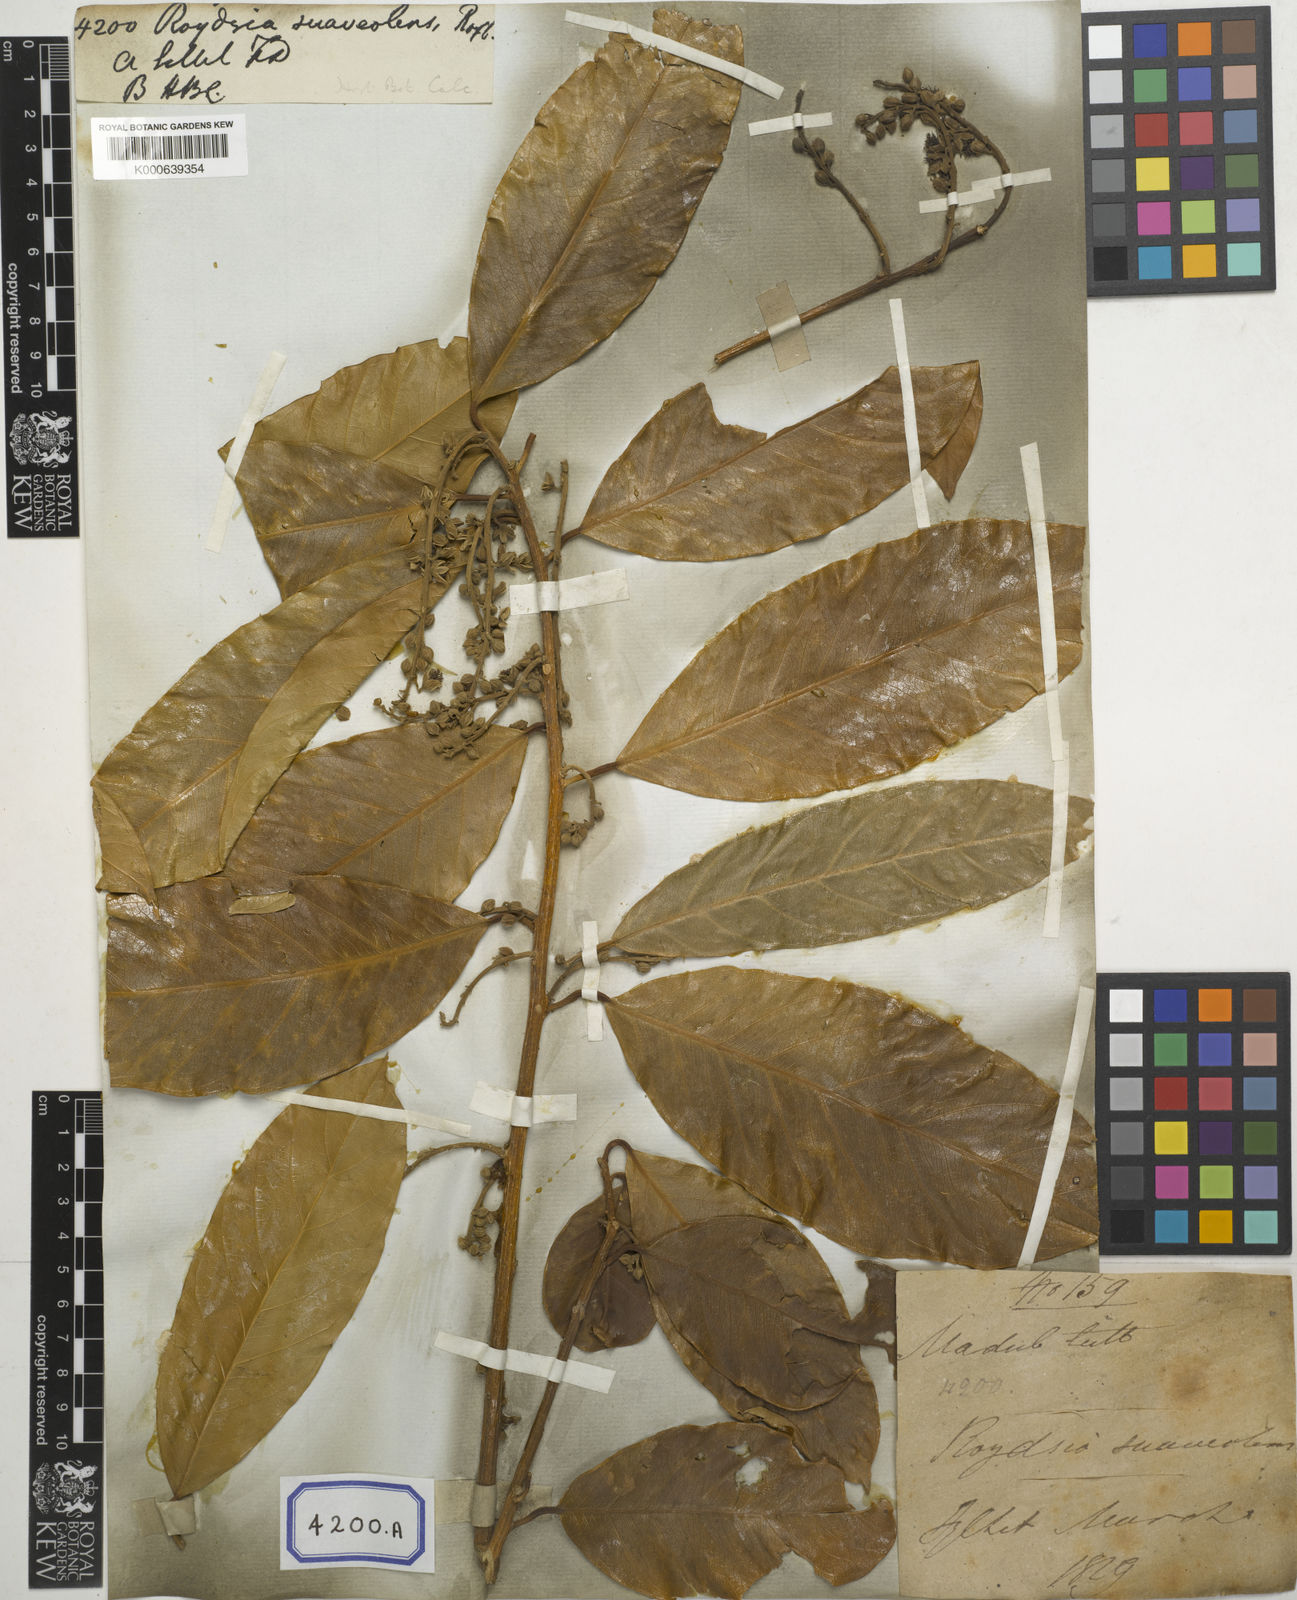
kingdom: Plantae
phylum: Tracheophyta
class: Magnoliopsida
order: Brassicales
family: Stixaceae
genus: Stixis
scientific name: Stixis suaveolens
